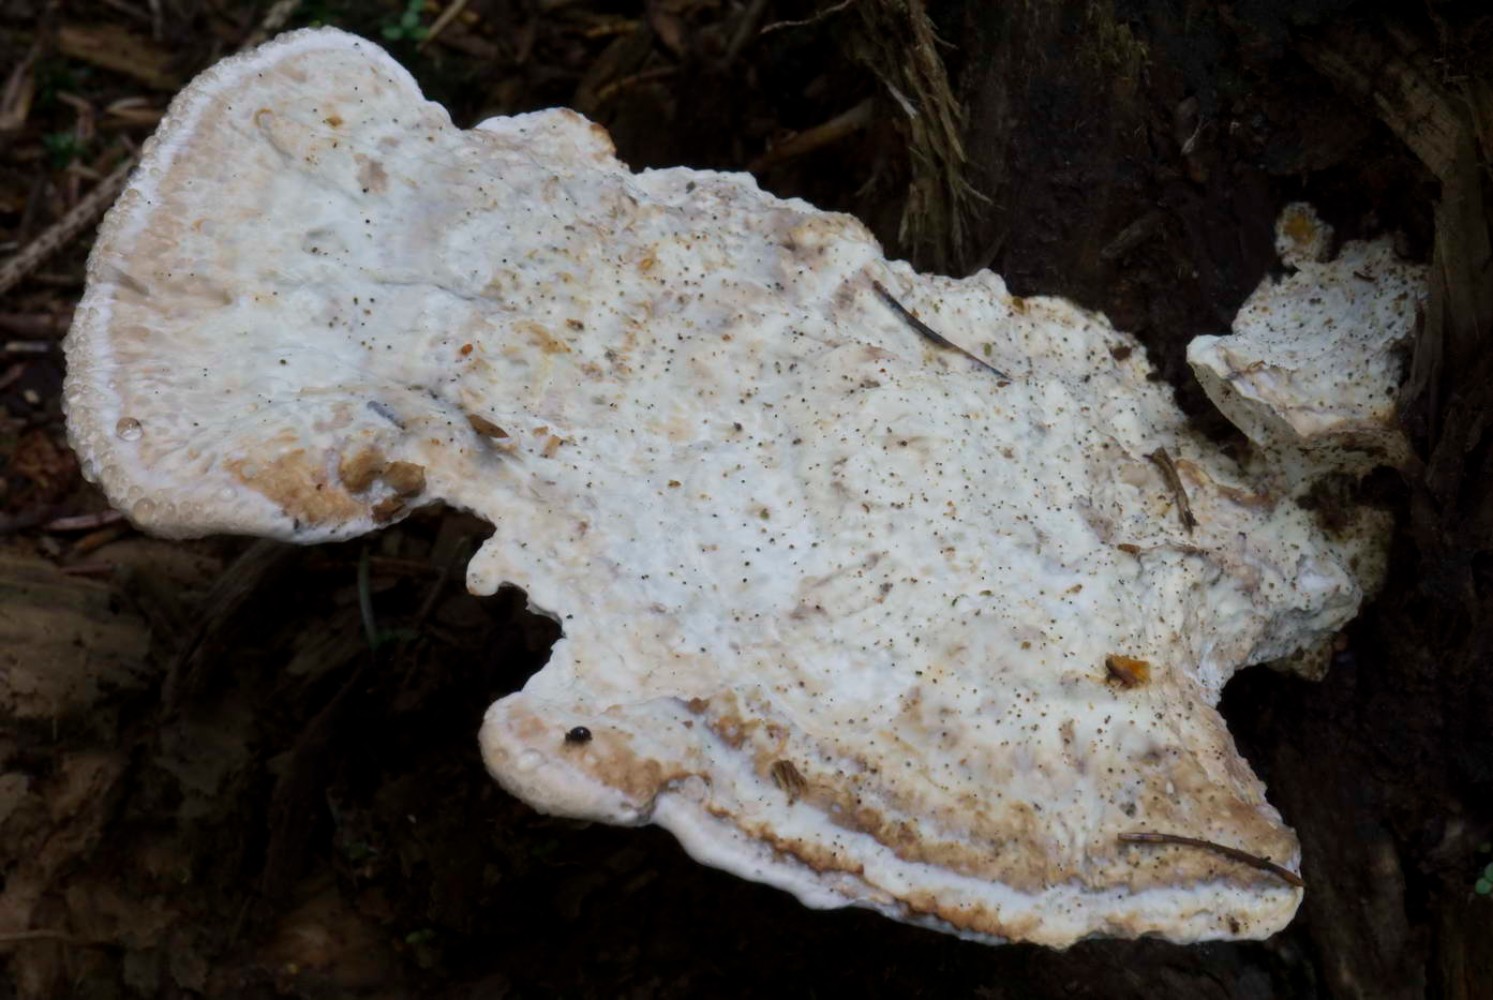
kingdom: Fungi
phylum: Basidiomycota
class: Agaricomycetes
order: Polyporales
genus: Calcipostia
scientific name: Calcipostia guttulata
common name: dråbe-kødporesvamp
